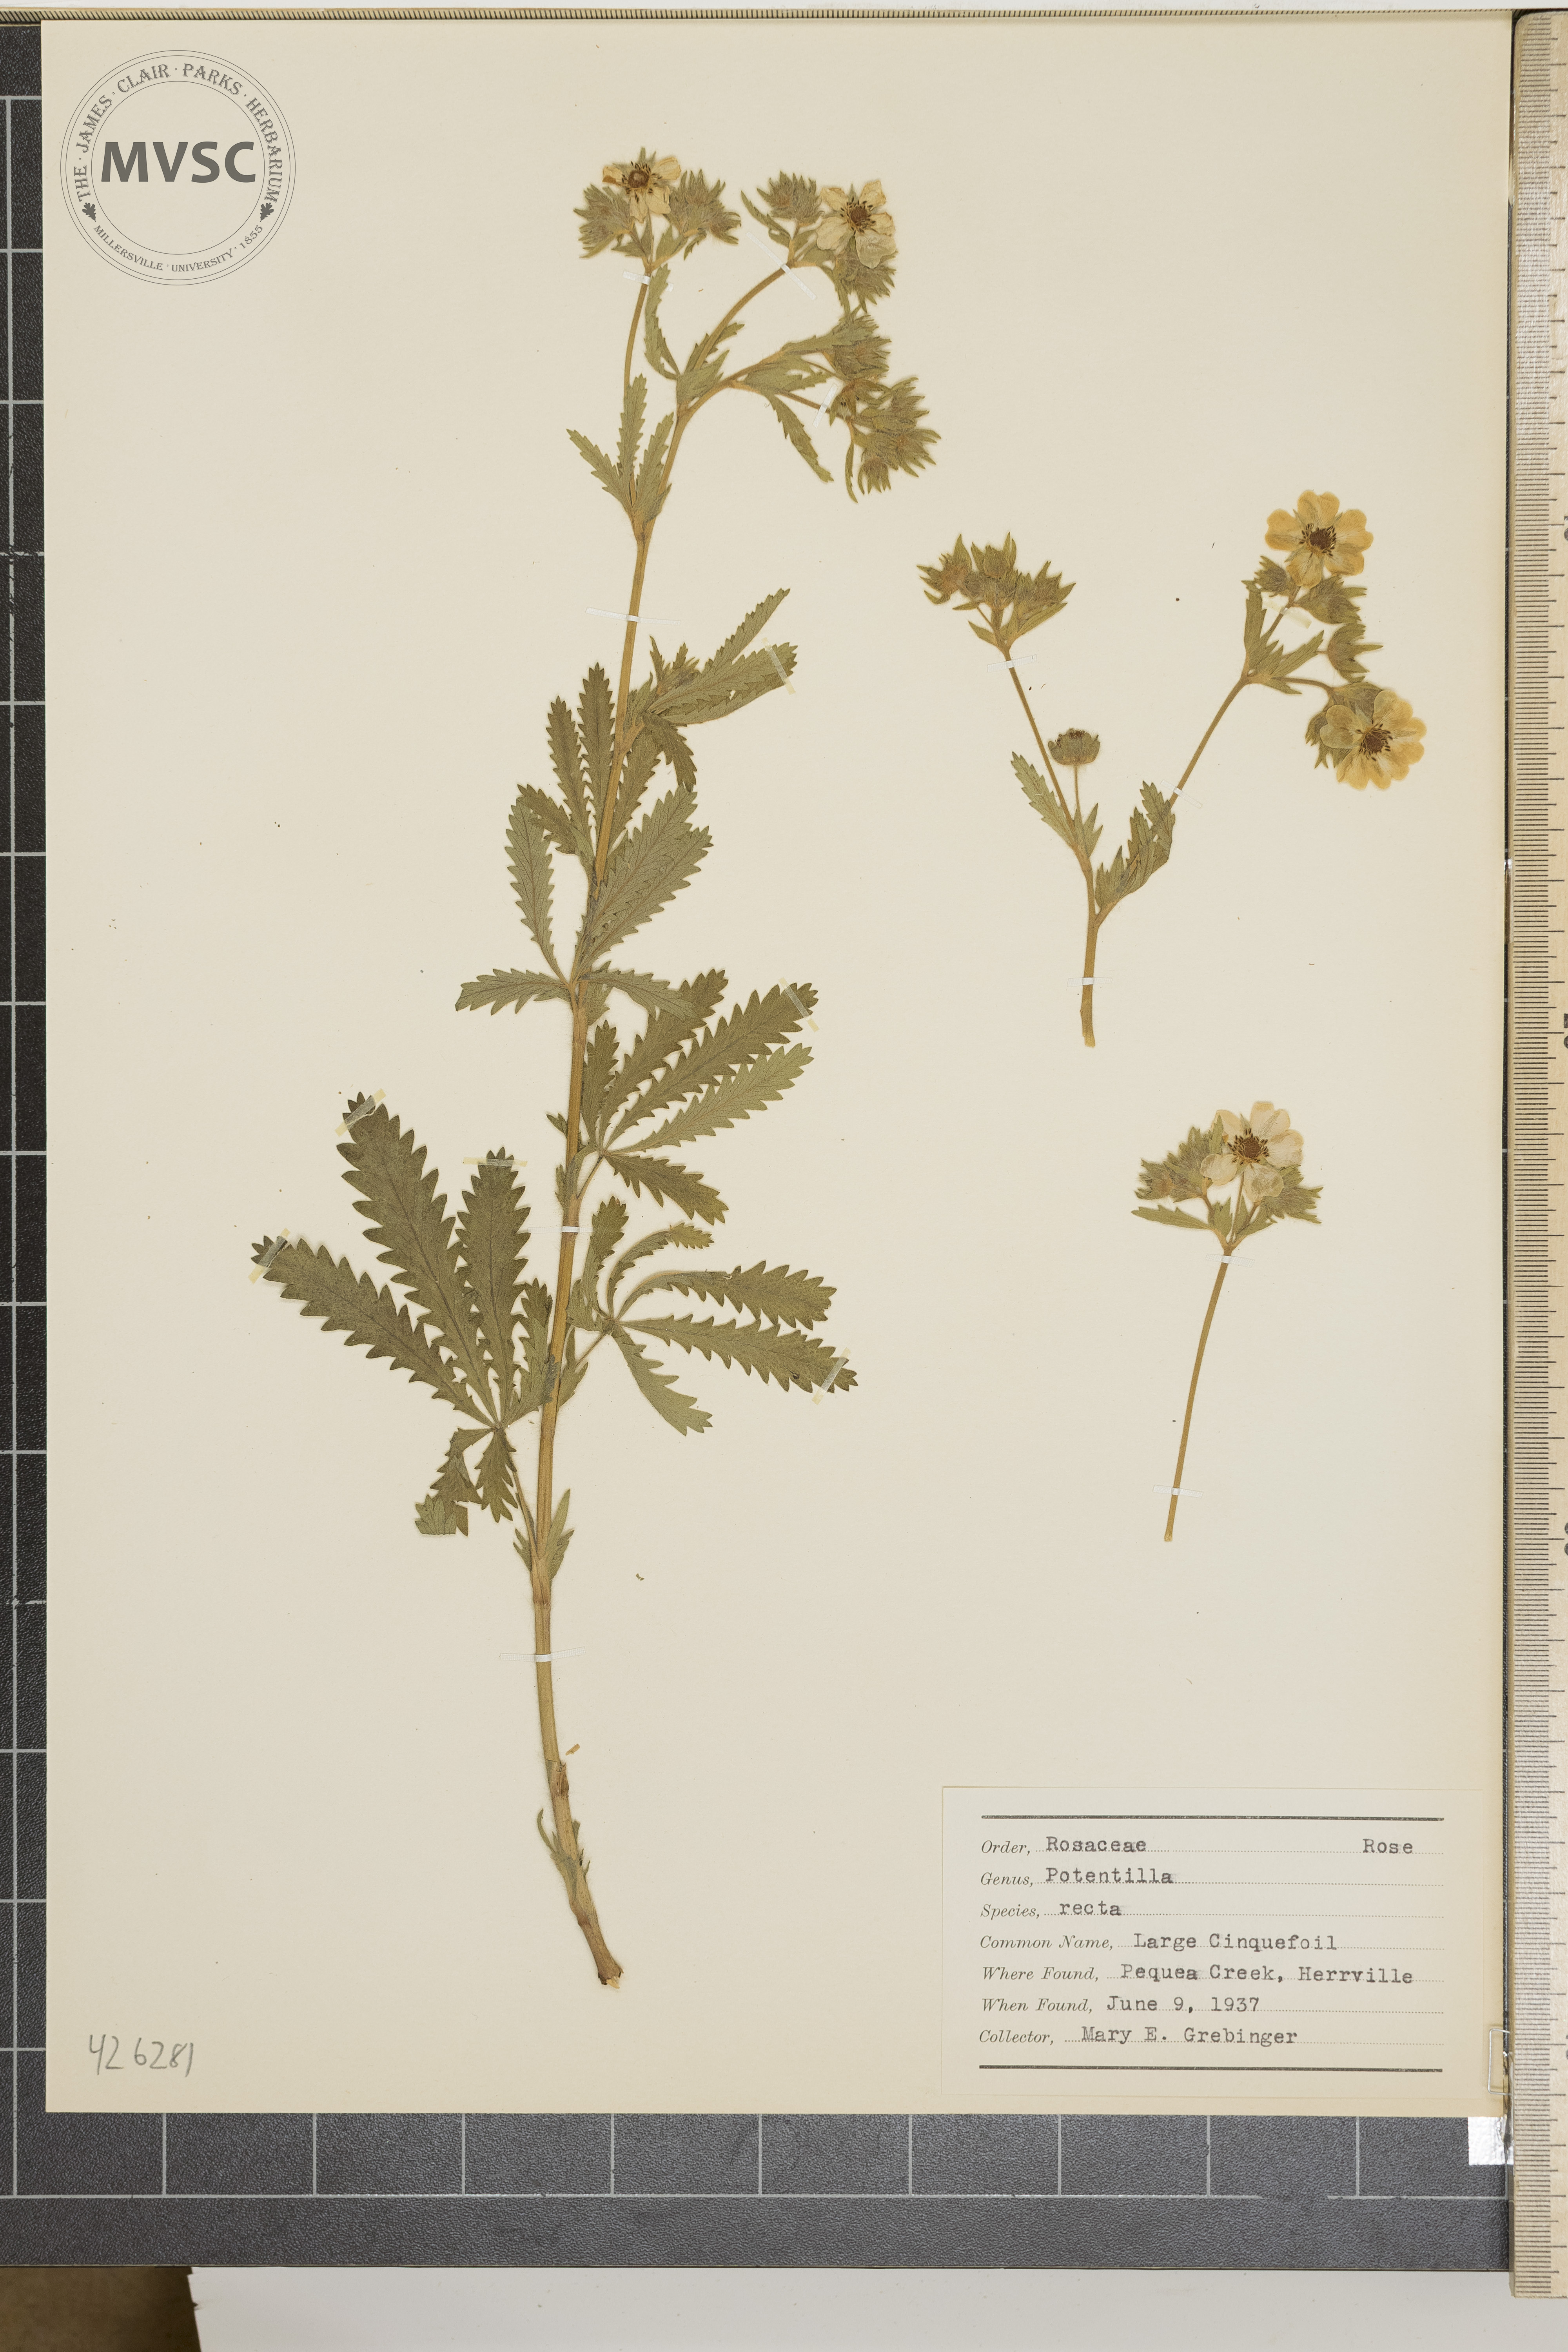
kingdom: Plantae
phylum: Tracheophyta
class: Magnoliopsida
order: Rosales
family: Rosaceae
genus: Potentilla
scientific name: Potentilla recta
